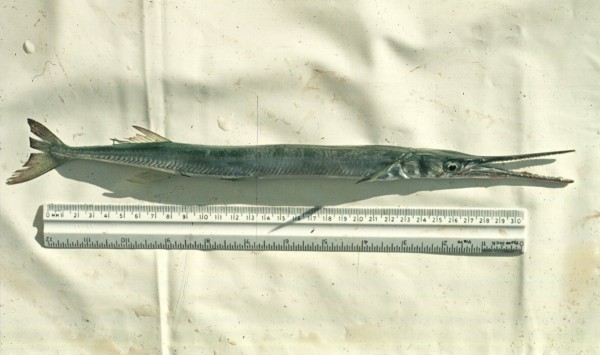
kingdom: Animalia
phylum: Chordata
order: Beloniformes
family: Belonidae
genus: Tylosurus
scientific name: Tylosurus
